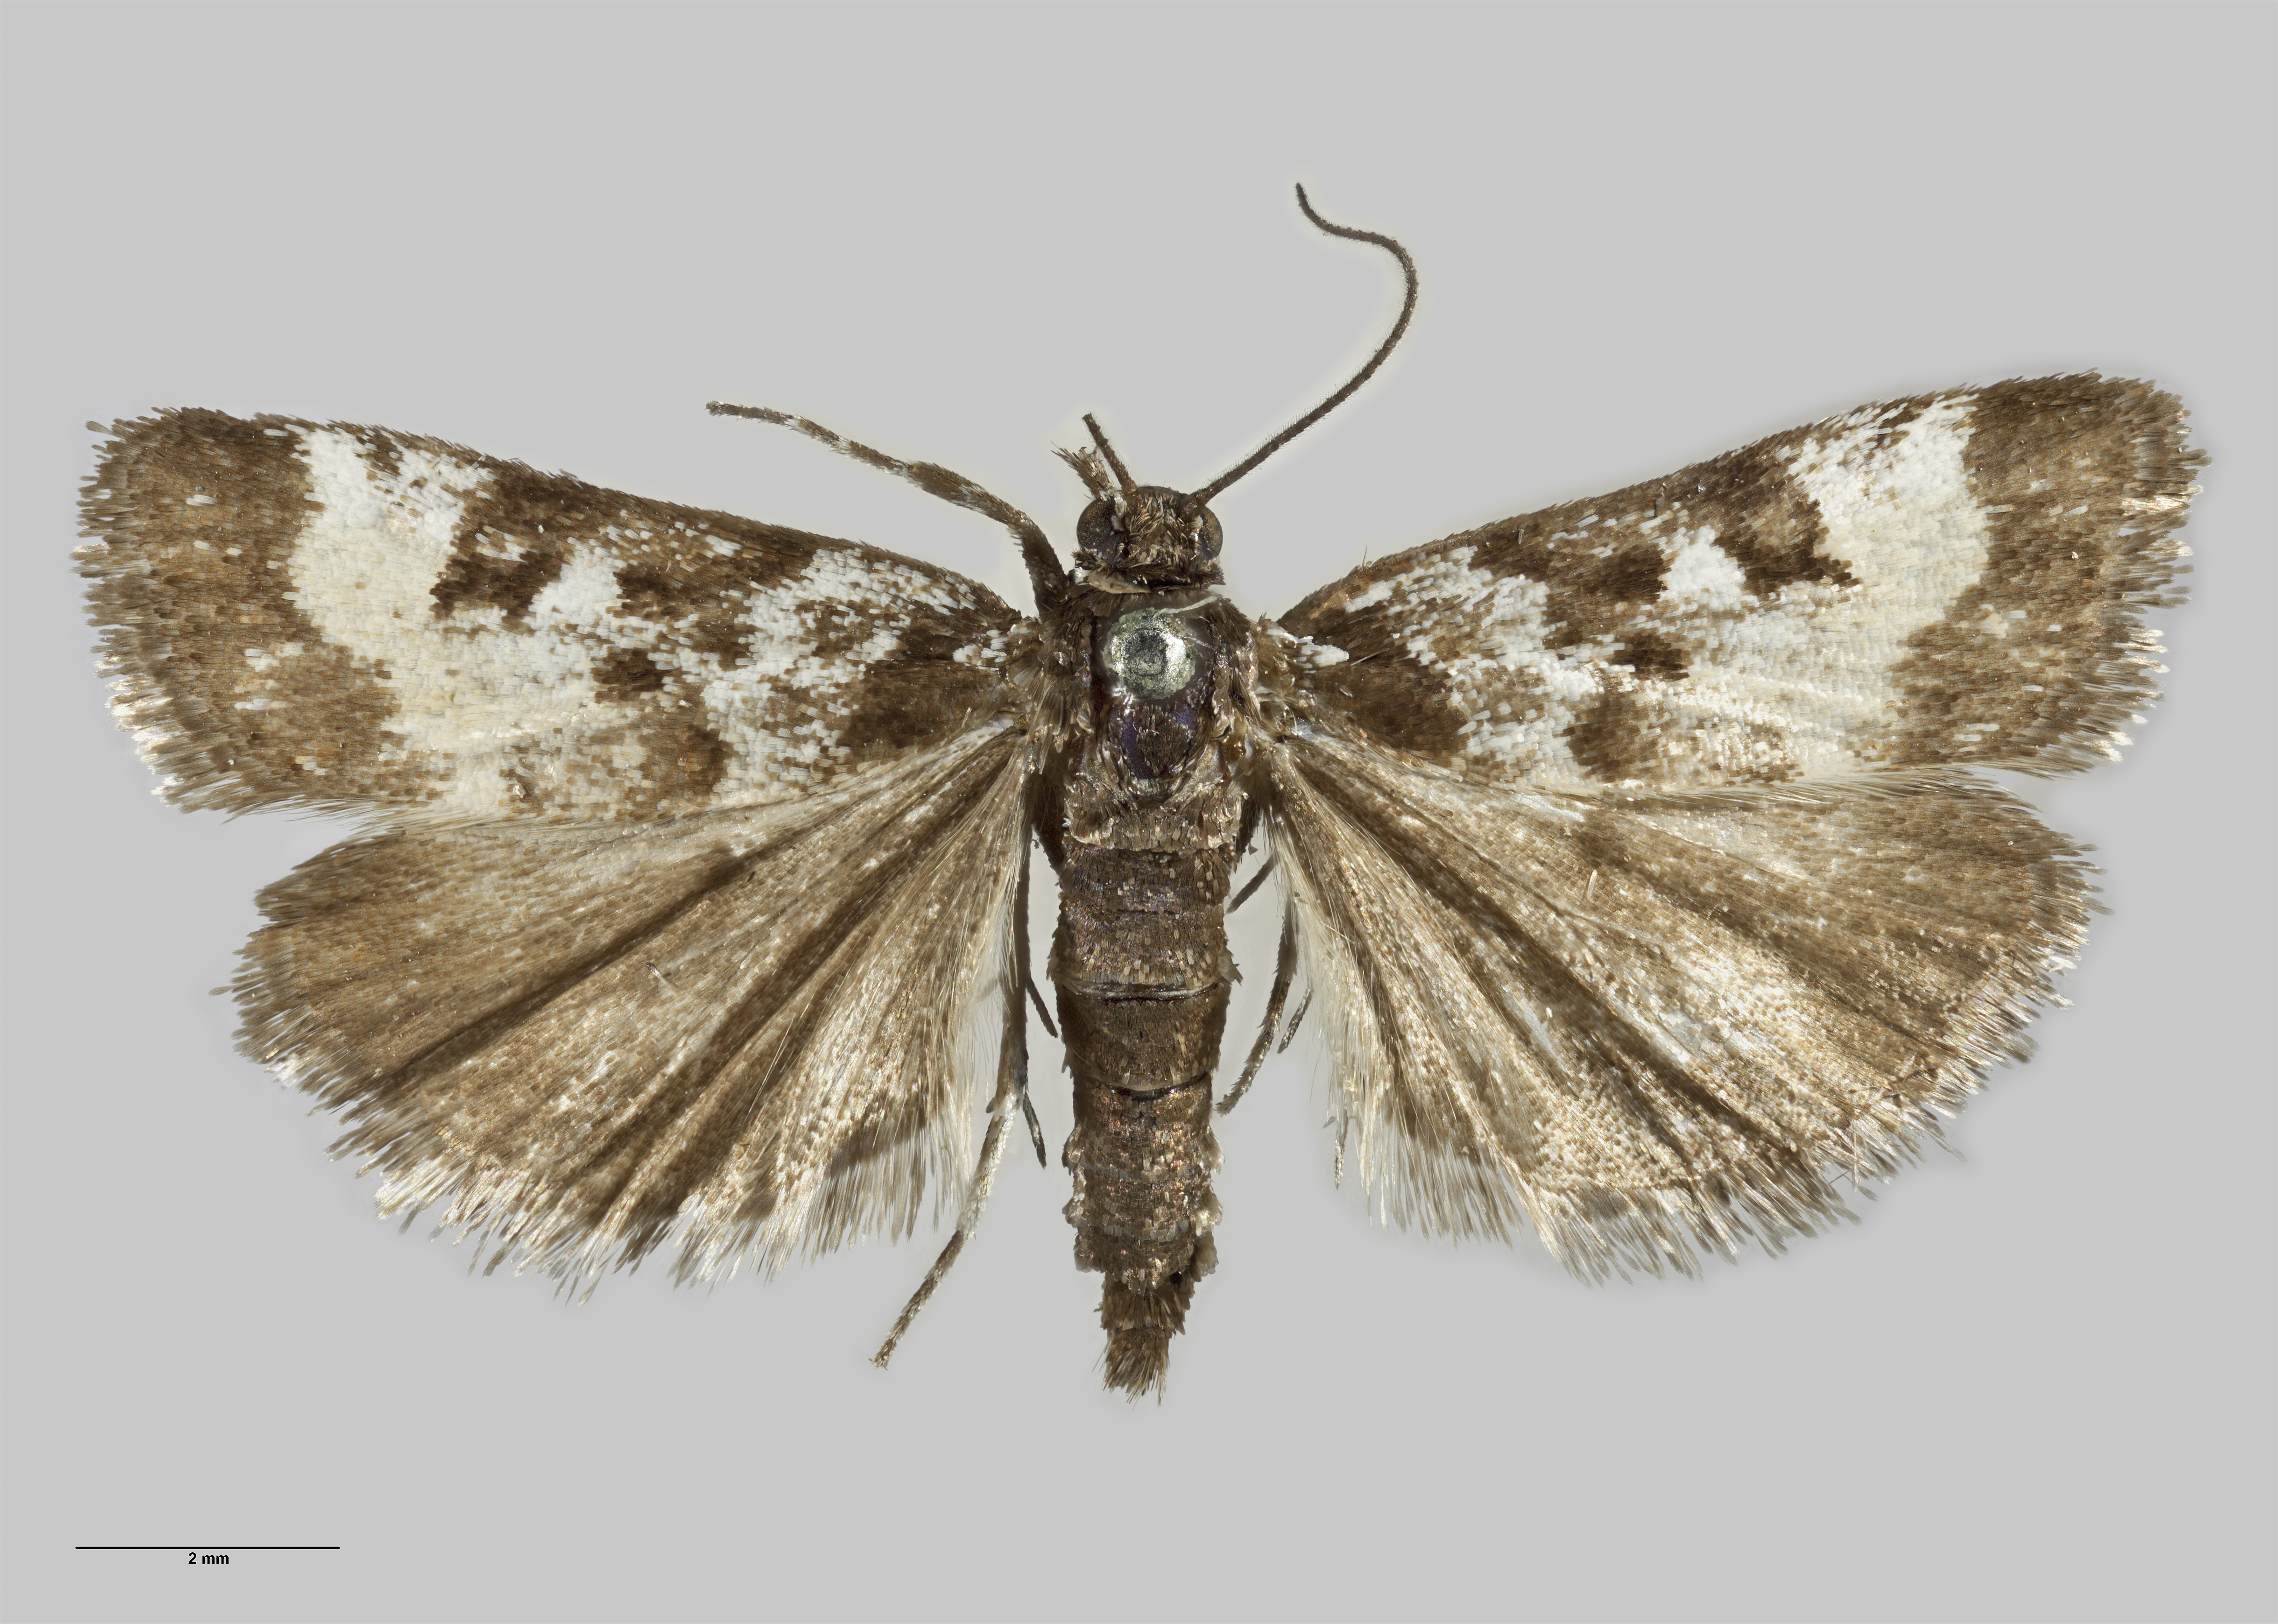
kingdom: Animalia
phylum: Arthropoda
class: Insecta
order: Lepidoptera
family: Crambidae
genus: Scoparia
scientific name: Scoparia tuicana
